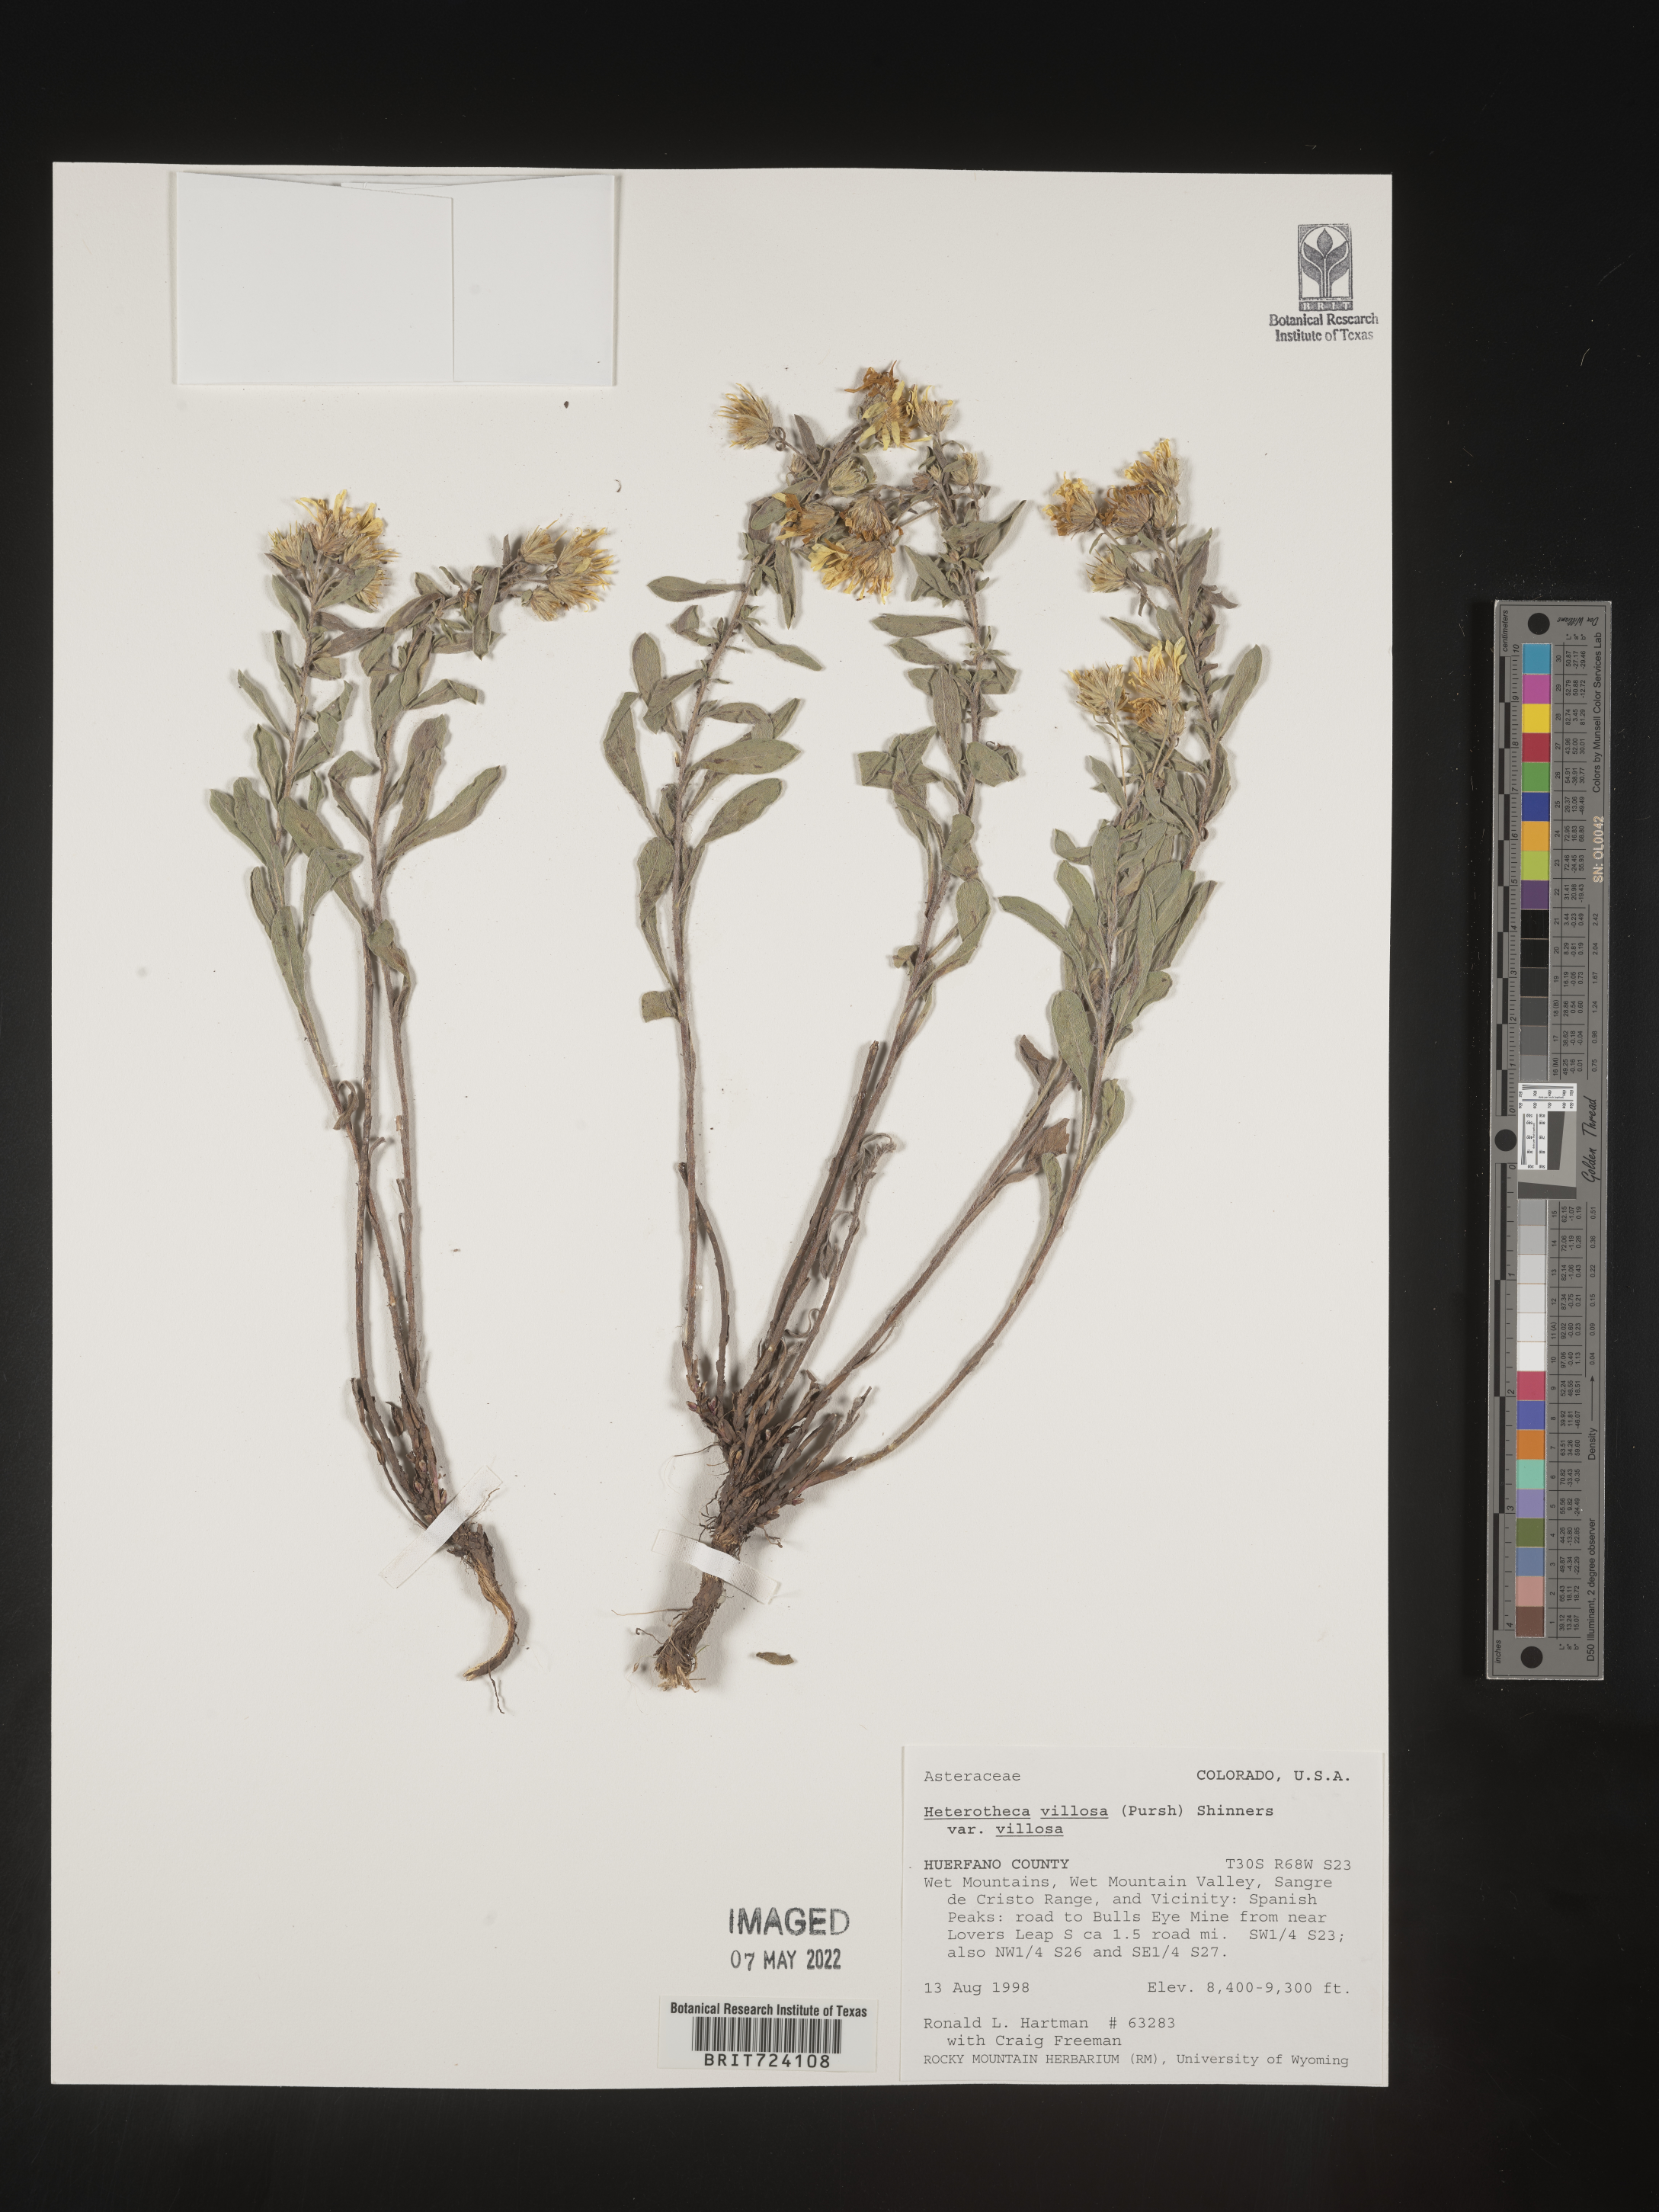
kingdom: Plantae
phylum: Tracheophyta
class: Magnoliopsida
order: Asterales
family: Asteraceae
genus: Heterotheca
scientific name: Heterotheca villosa
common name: Hairy false goldenaster
